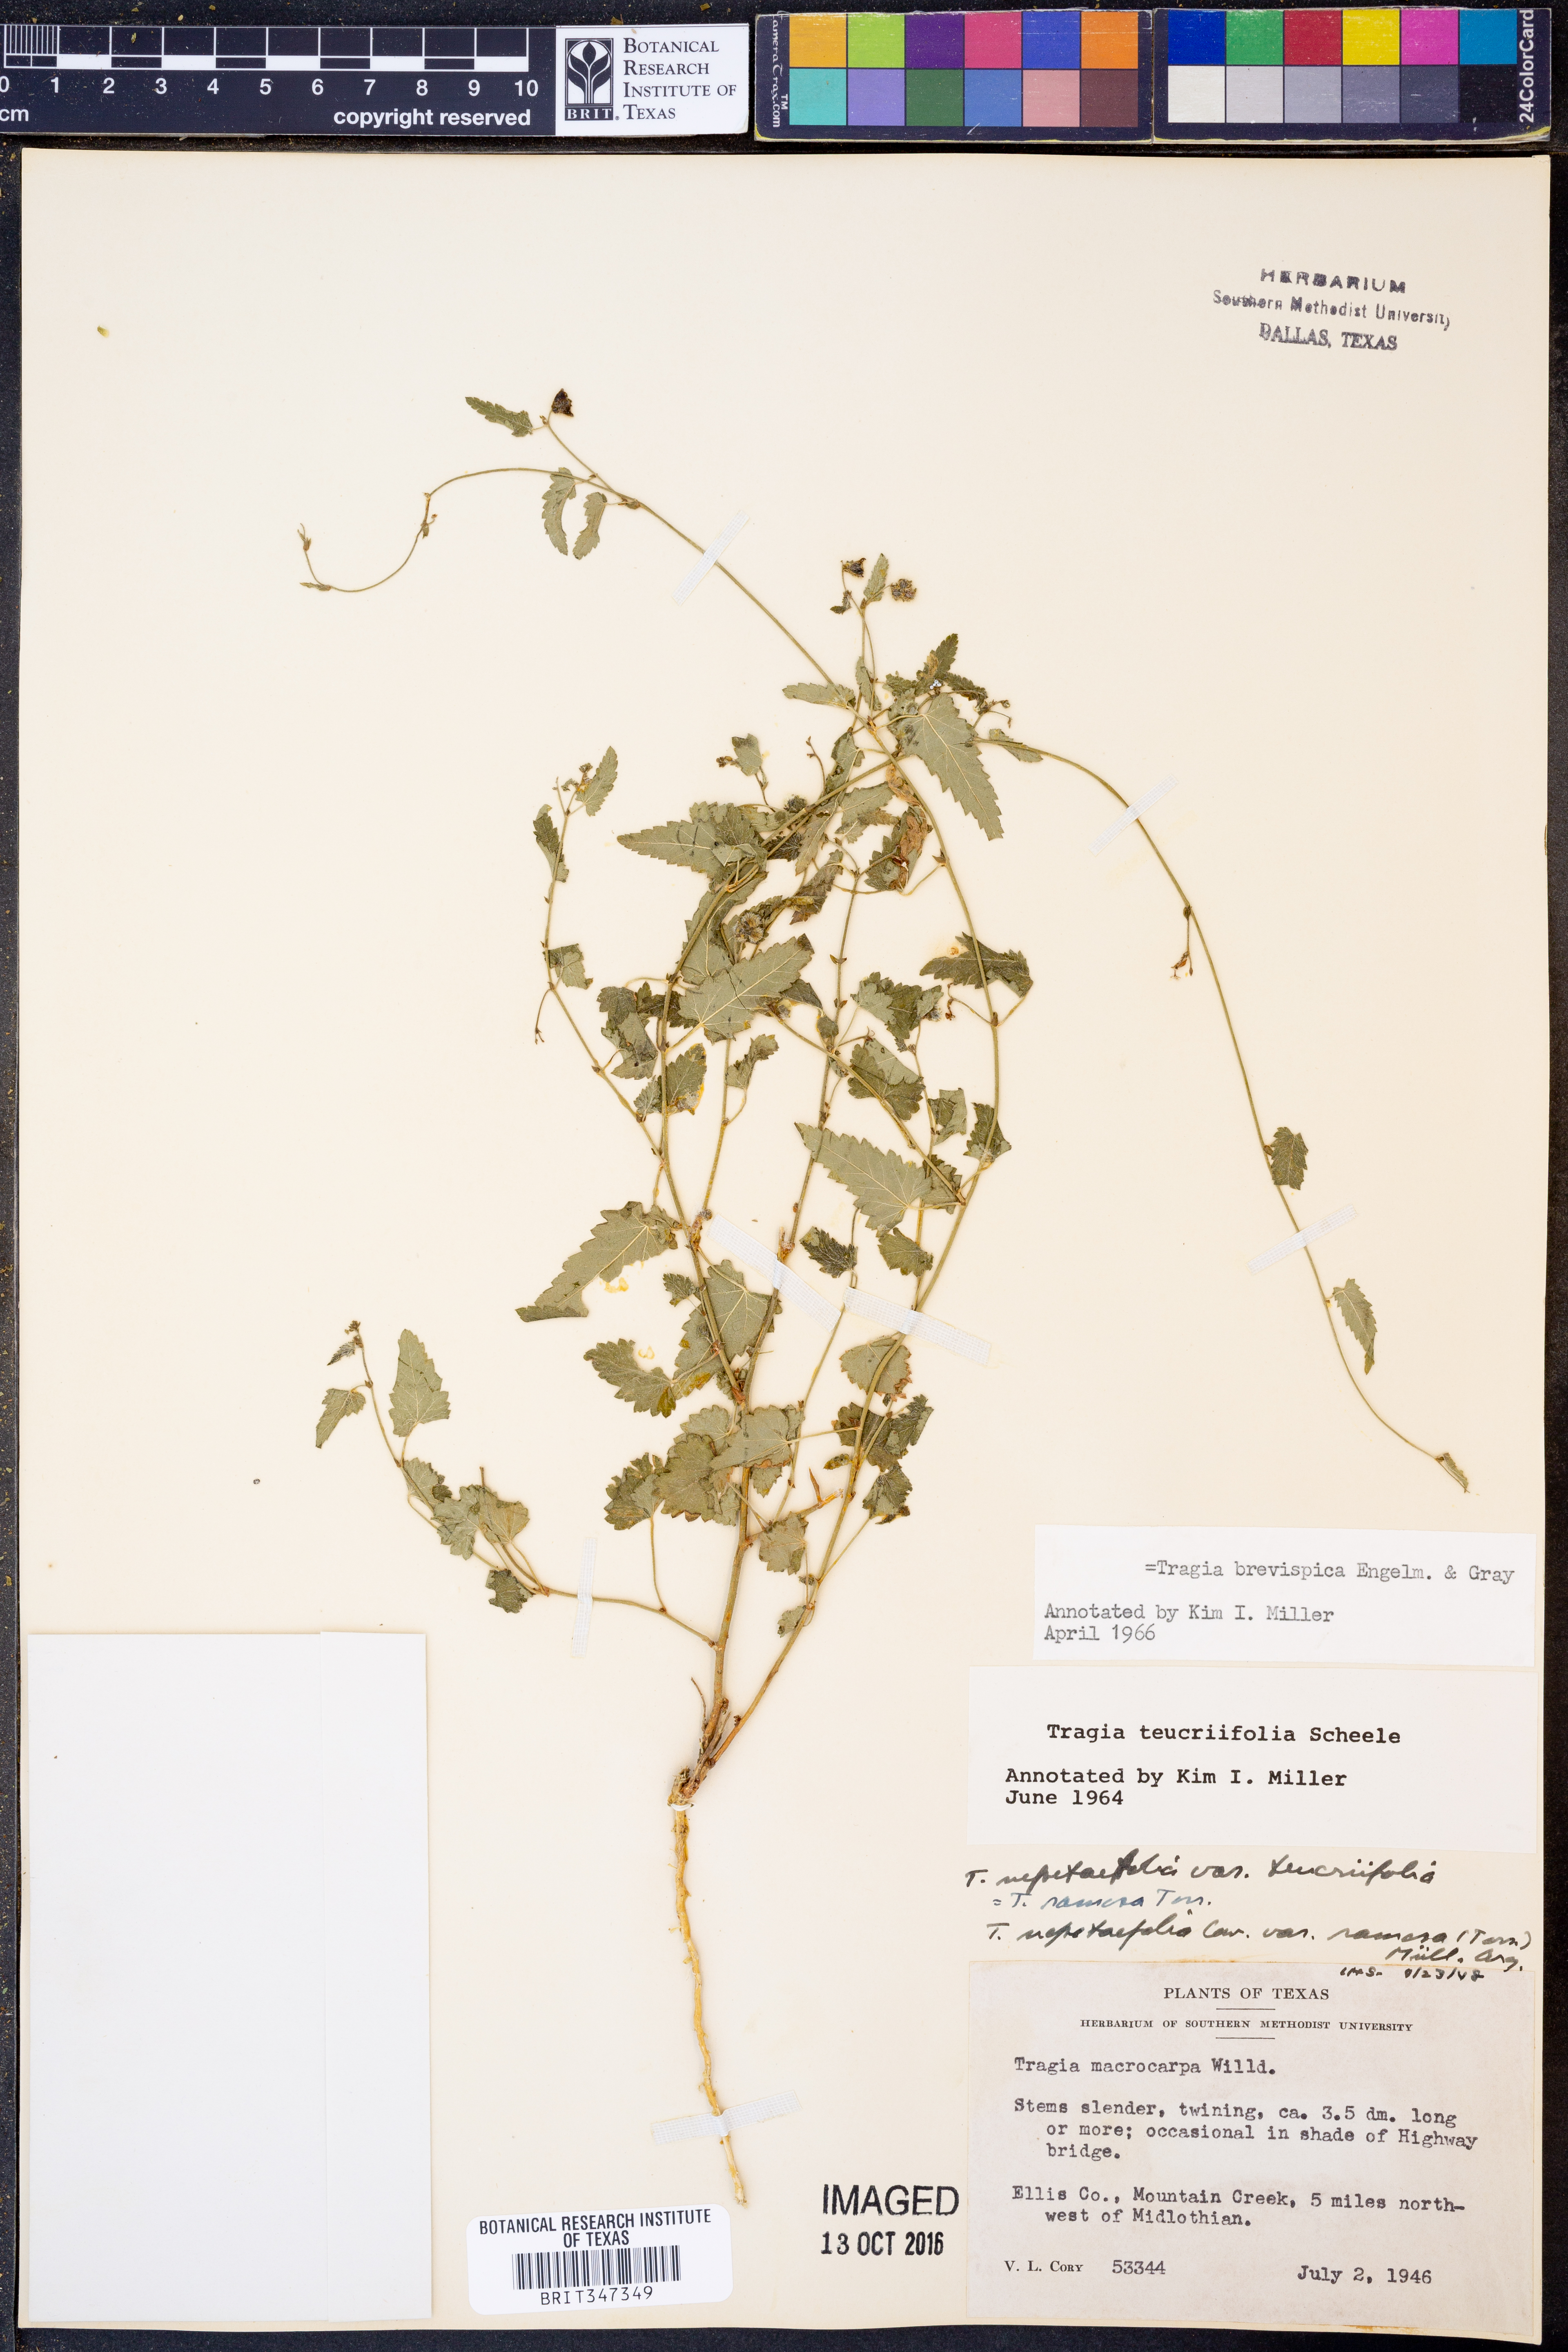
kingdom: Plantae
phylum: Tracheophyta
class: Magnoliopsida
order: Malpighiales
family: Euphorbiaceae
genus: Tragia
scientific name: Tragia brevispica
